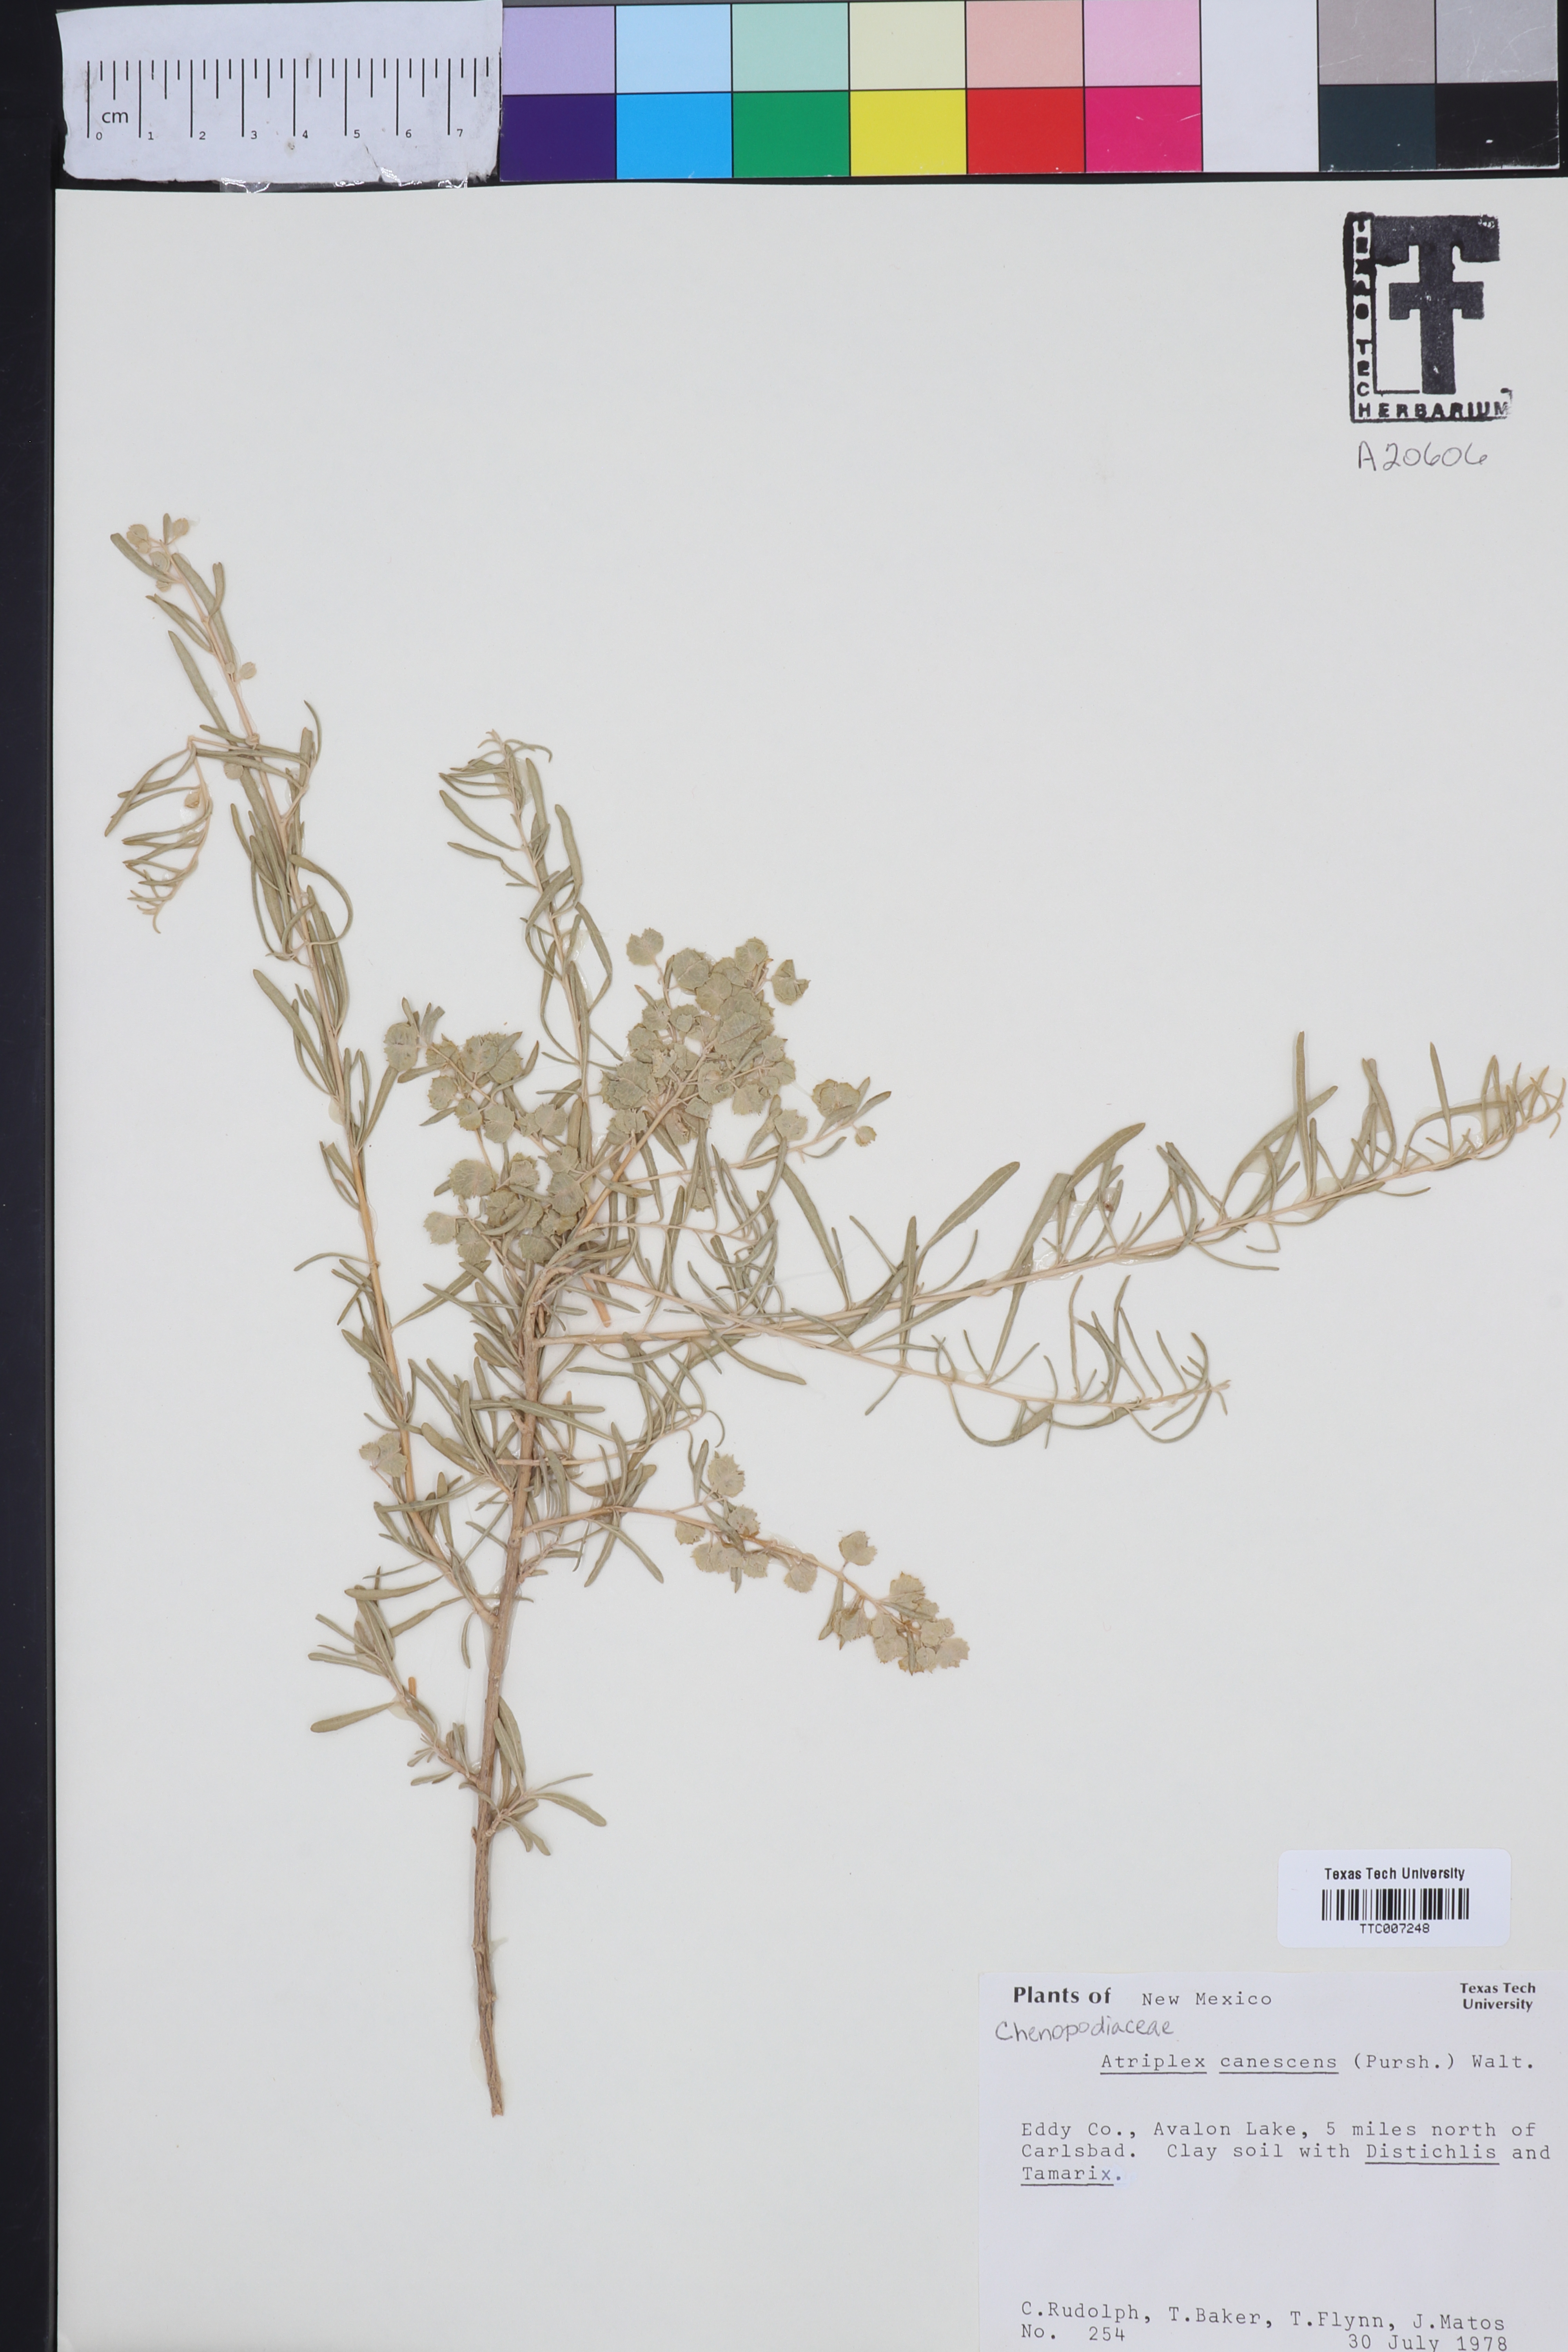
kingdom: Plantae
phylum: Tracheophyta
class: Magnoliopsida
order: Caryophyllales
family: Amaranthaceae
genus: Atriplex
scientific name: Atriplex canescens
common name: Four-wing saltbush
